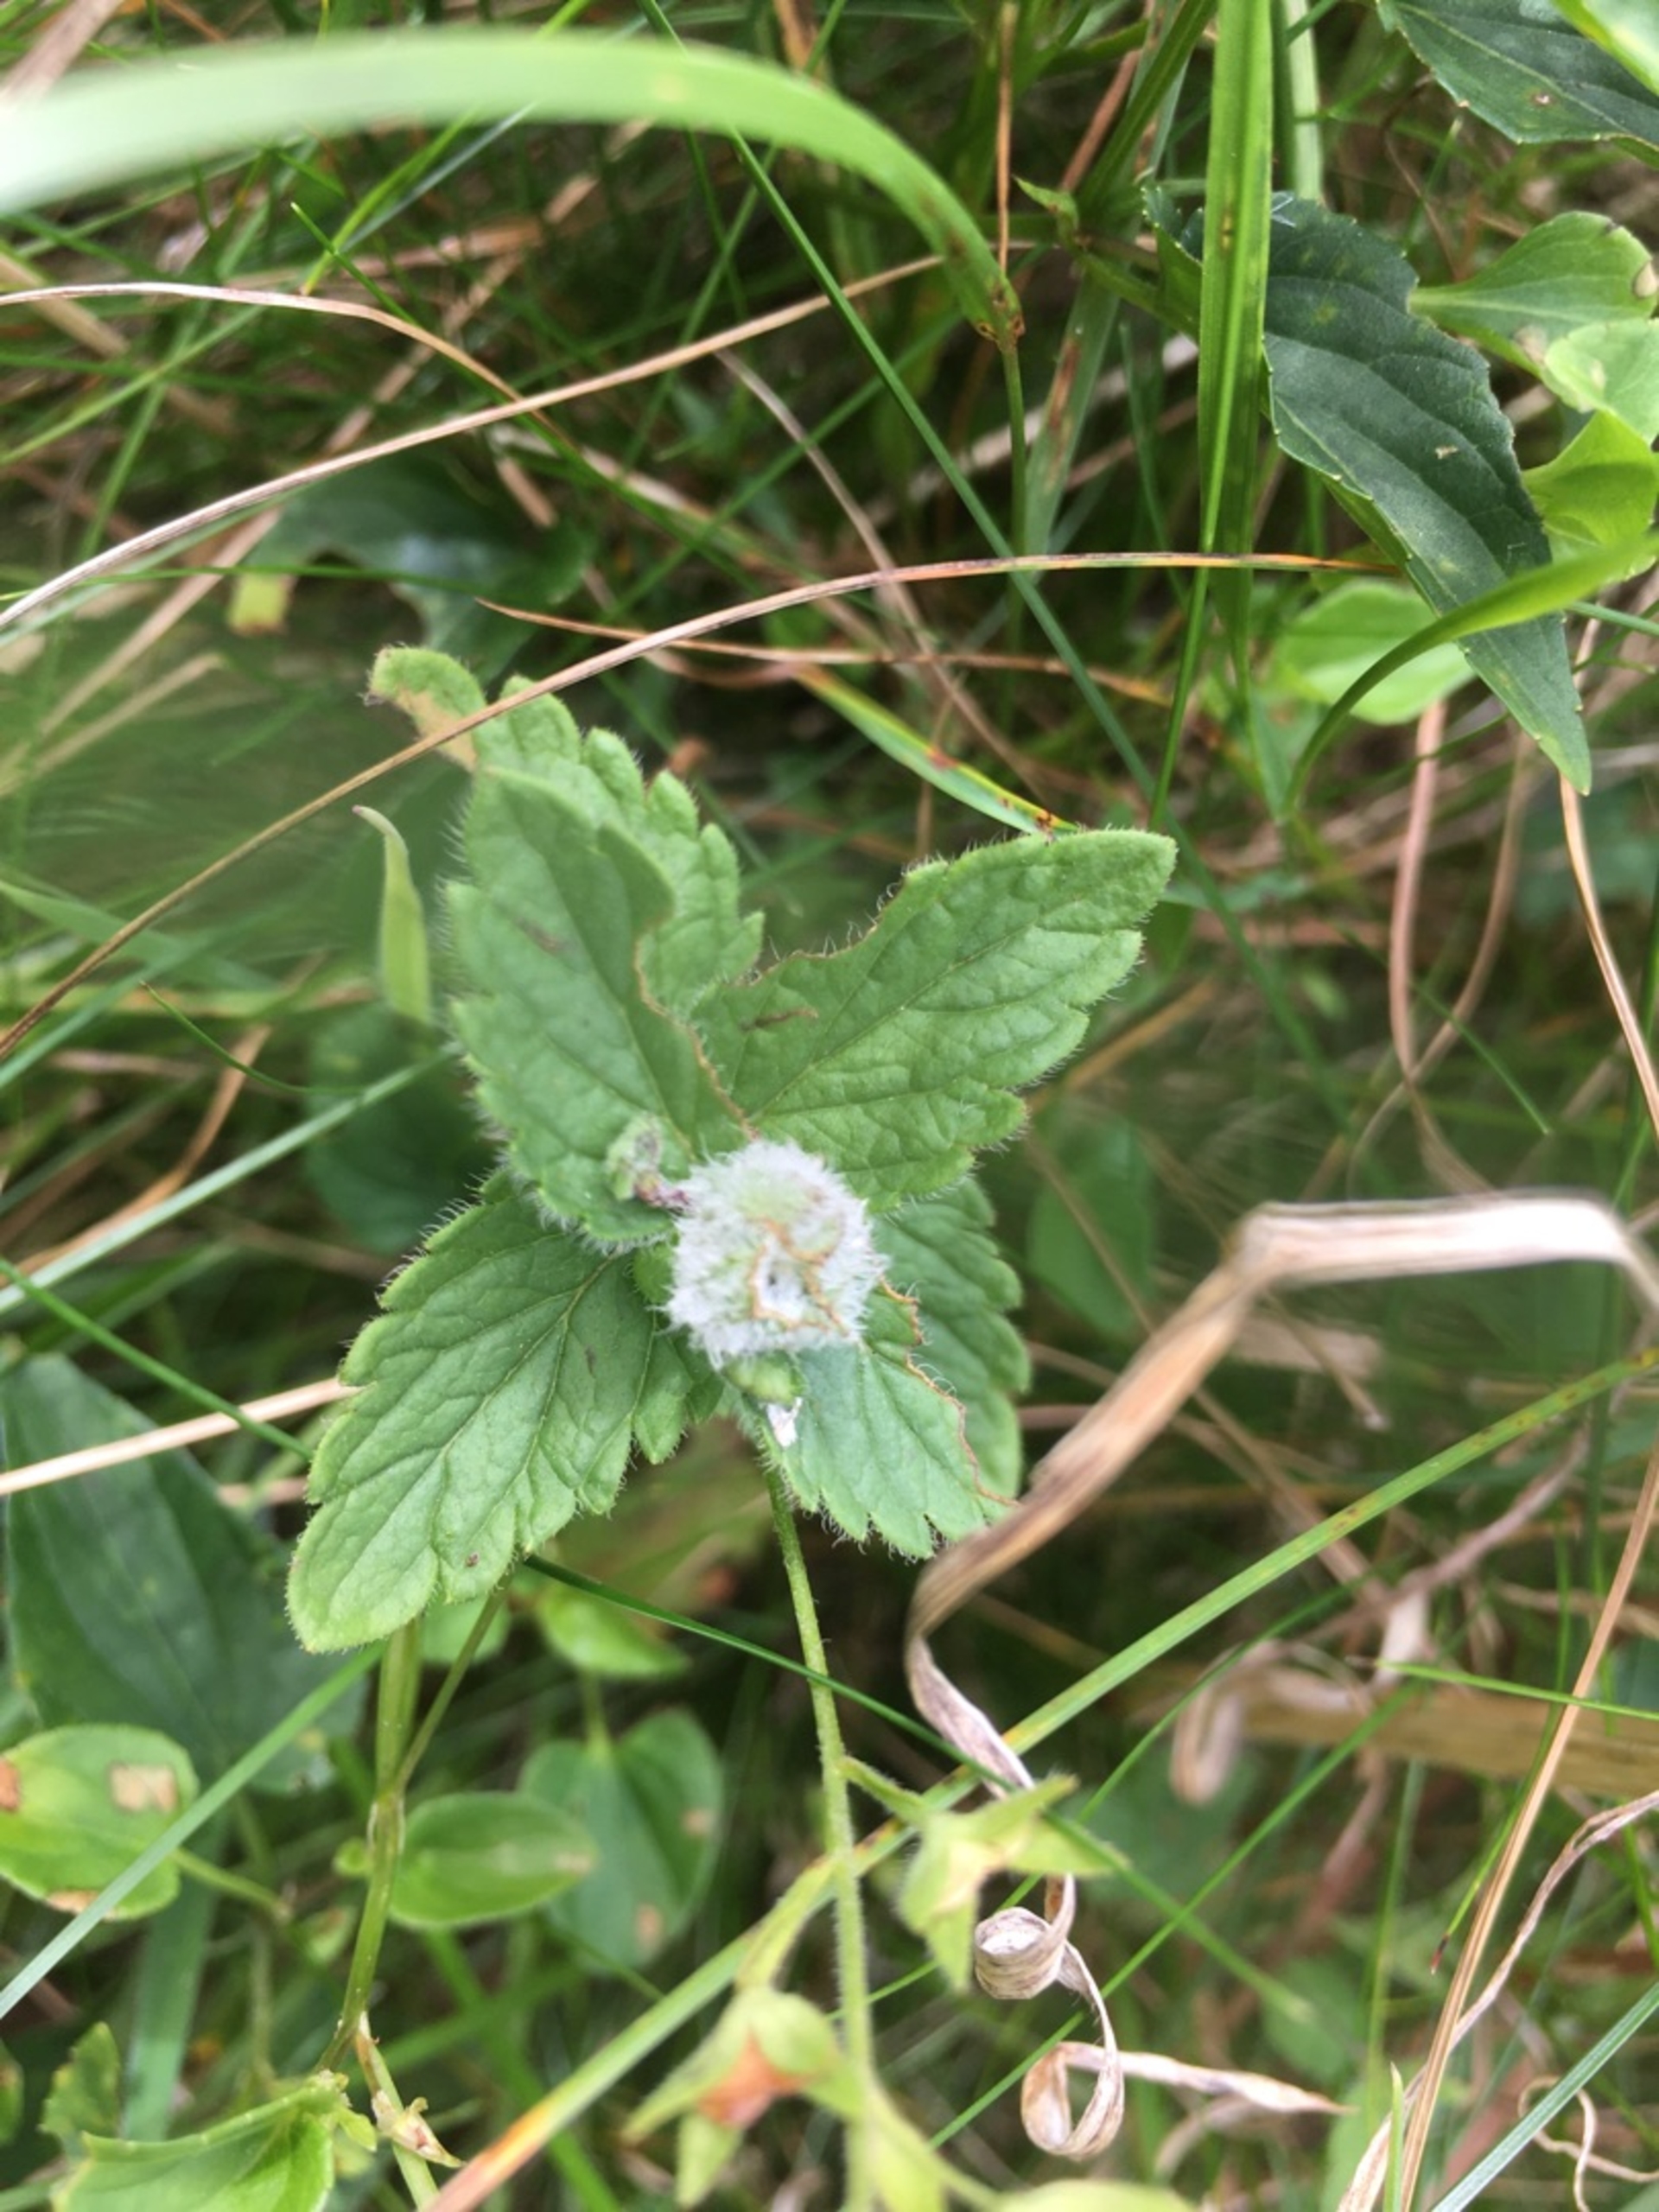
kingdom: Animalia
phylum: Arthropoda
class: Insecta
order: Diptera
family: Cecidomyiidae
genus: Jaapiella
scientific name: Jaapiella veronicae
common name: Ærenprisgalmyg
